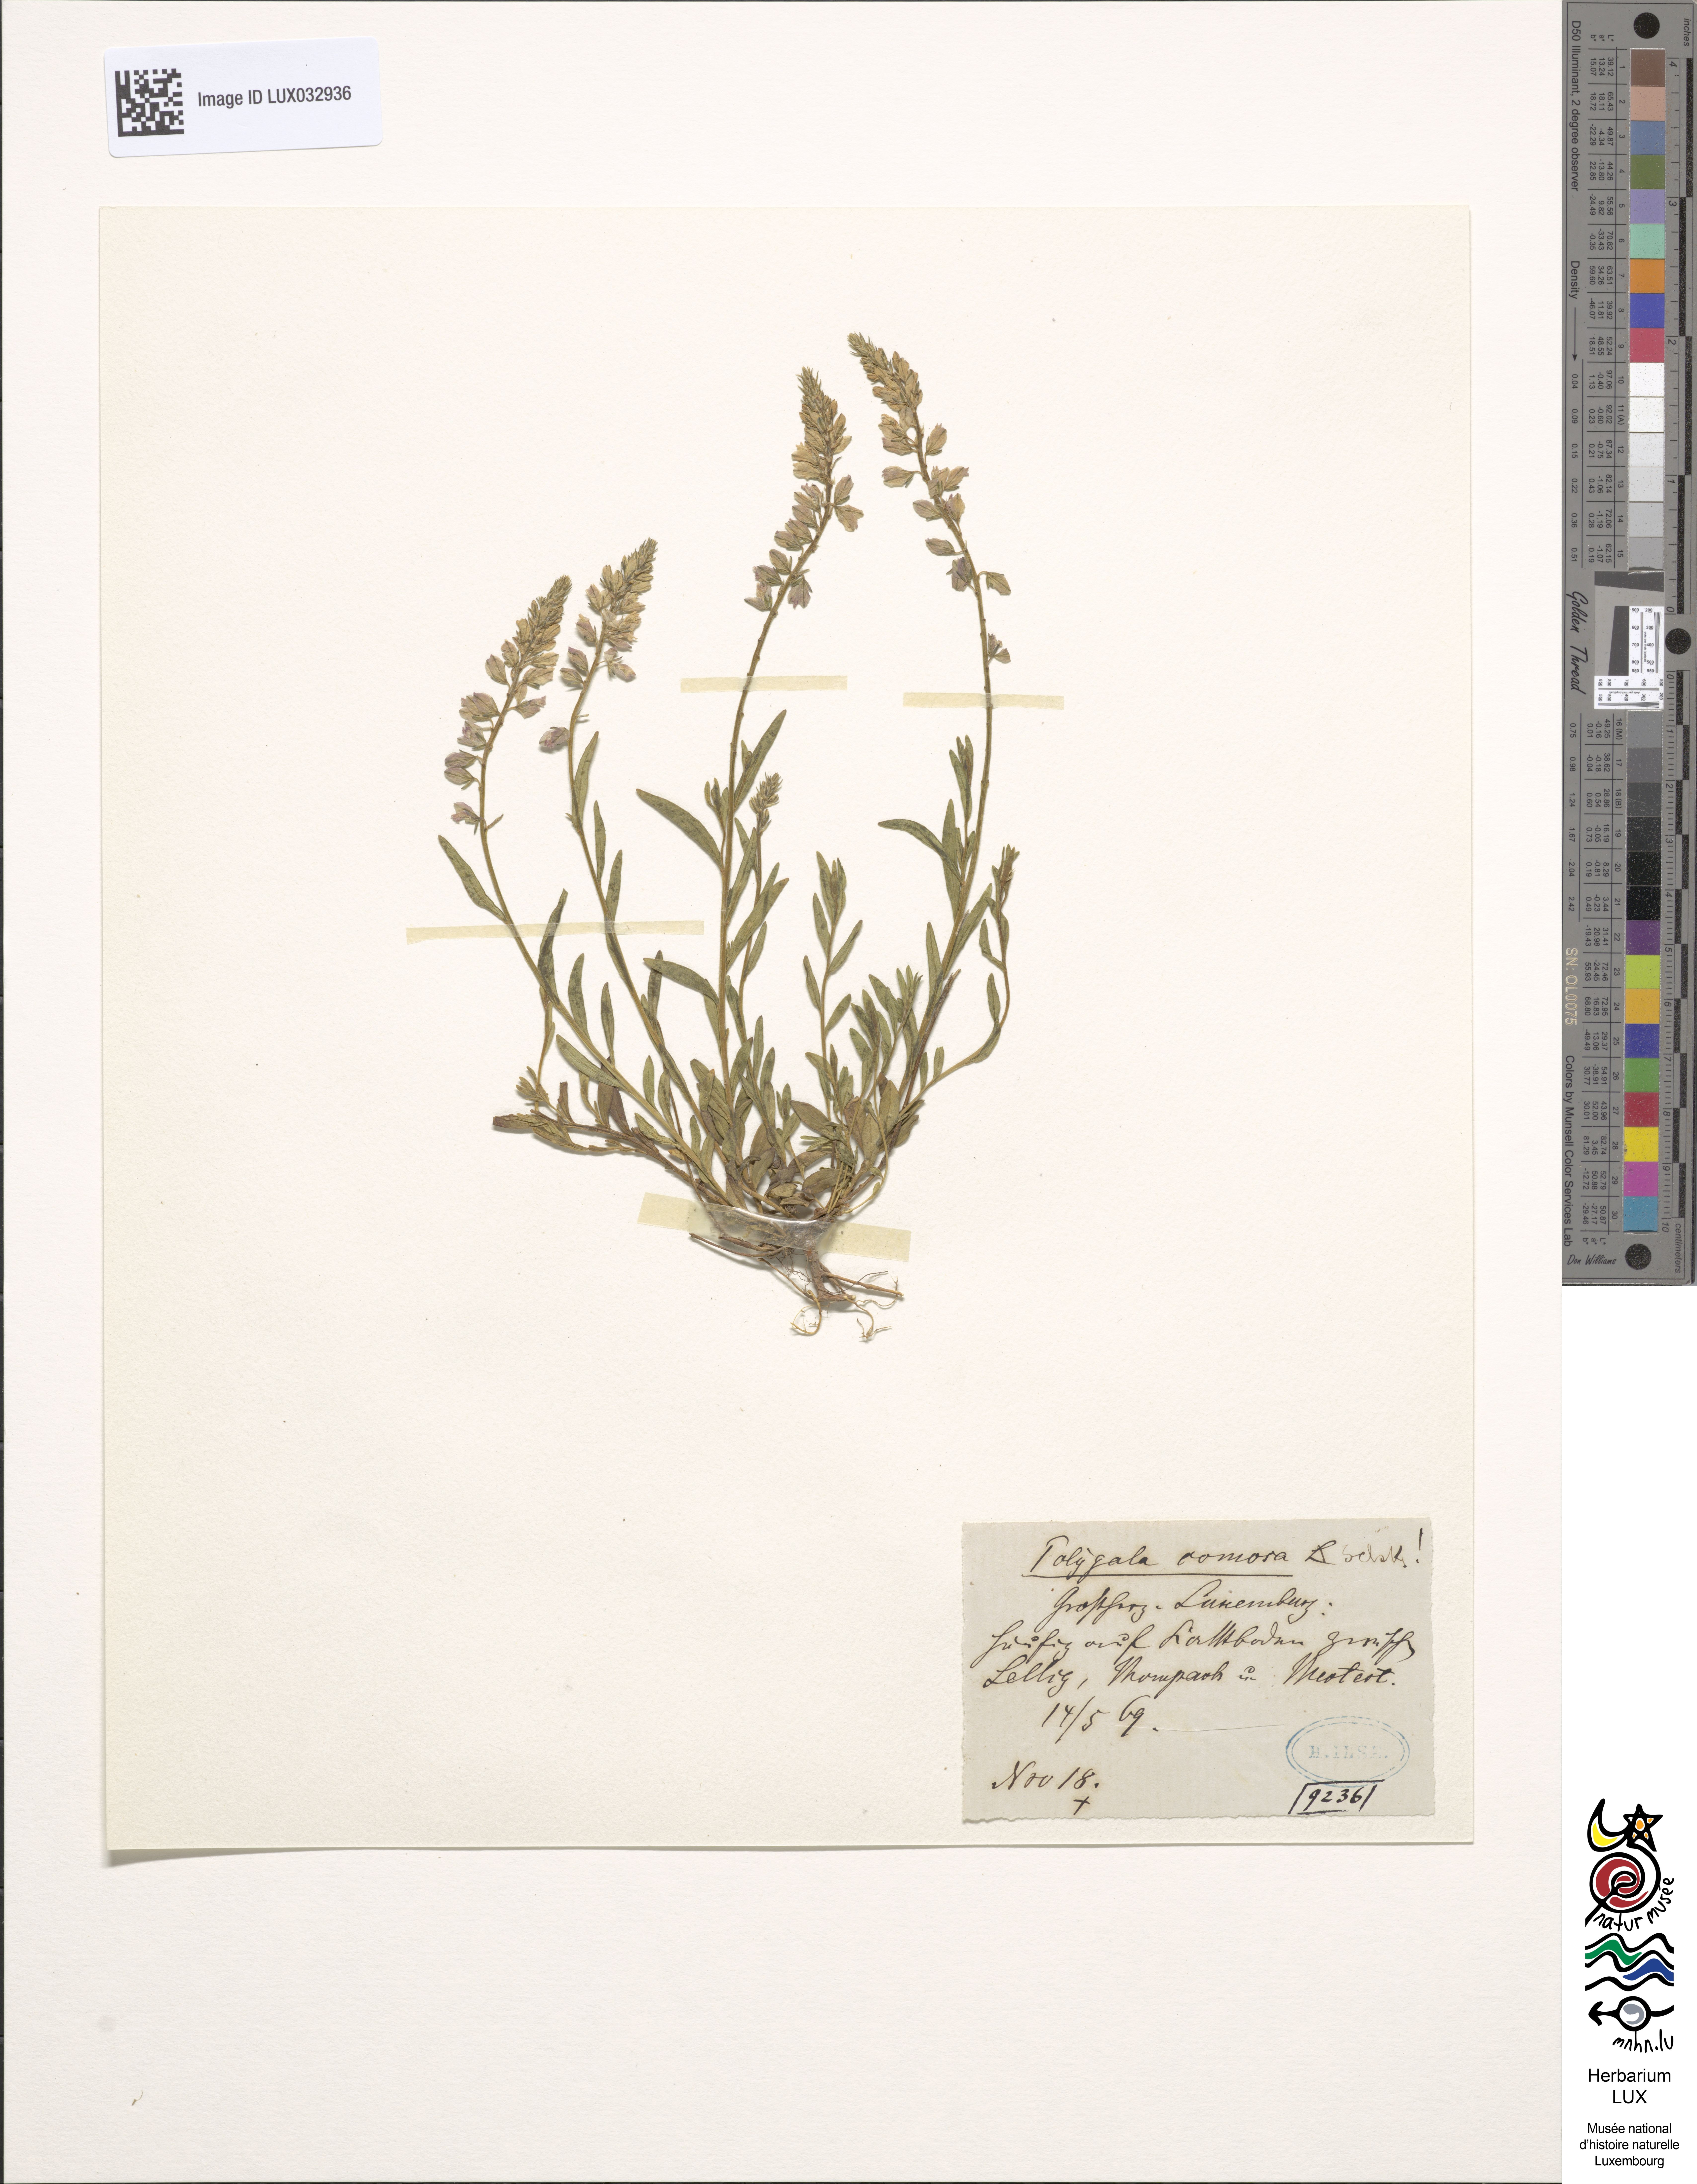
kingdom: Plantae
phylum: Tracheophyta
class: Magnoliopsida
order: Fabales
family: Polygalaceae
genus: Polygala
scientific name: Polygala comosa
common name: Tufted milkwort
